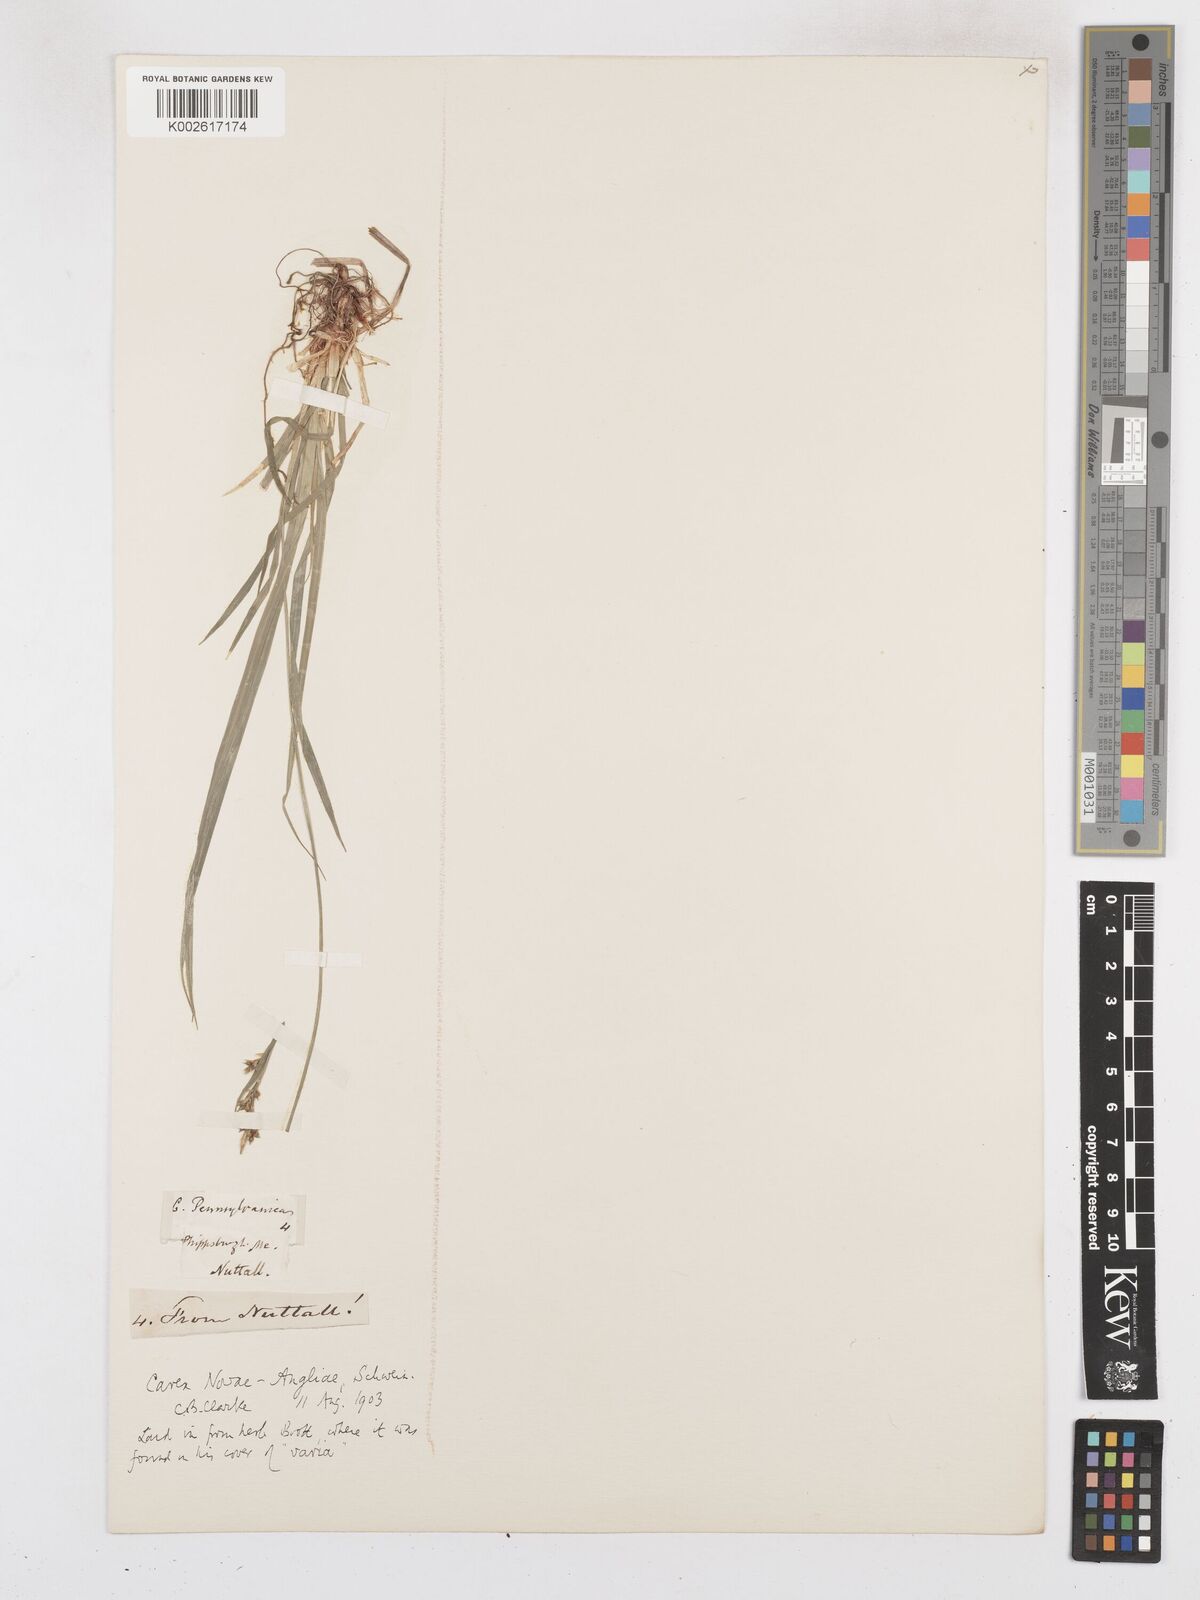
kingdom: Plantae
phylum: Tracheophyta
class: Liliopsida
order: Poales
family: Cyperaceae
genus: Carex
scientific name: Carex novae-angliae
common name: New england sedge
